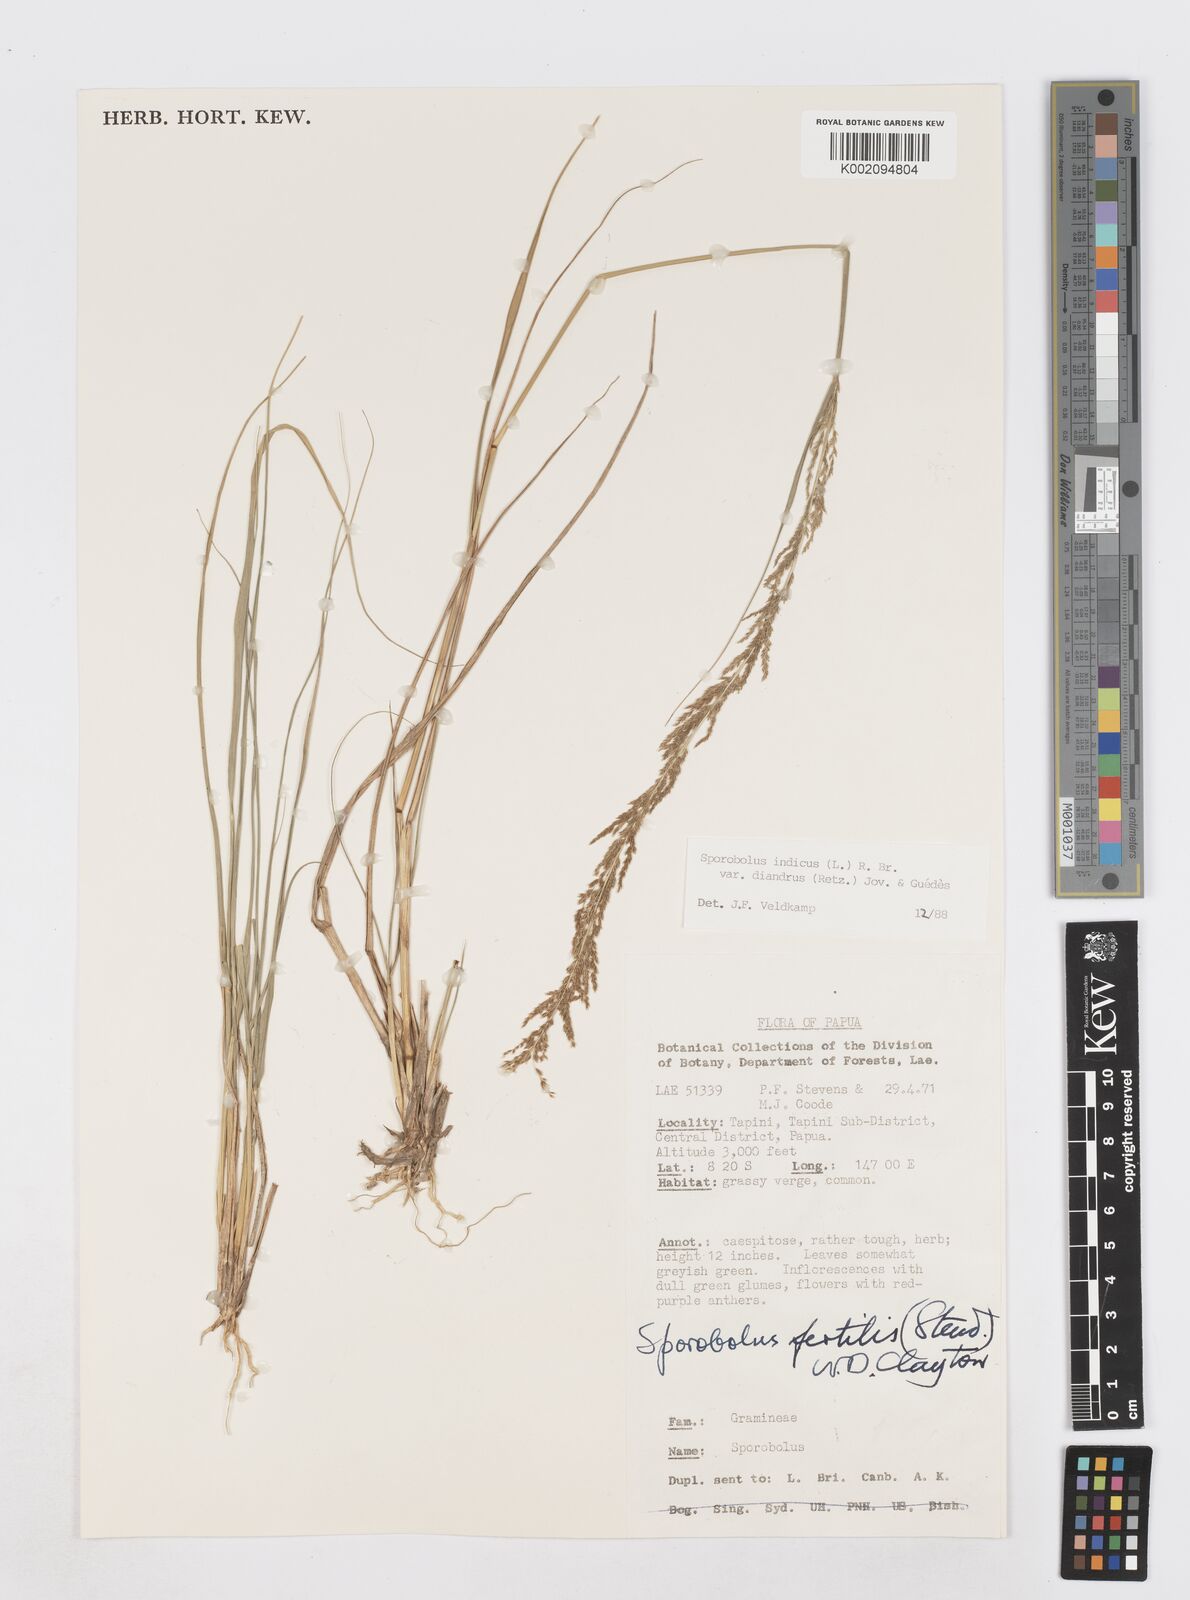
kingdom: Plantae
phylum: Tracheophyta
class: Liliopsida
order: Poales
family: Poaceae
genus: Sporobolus
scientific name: Sporobolus diandrus
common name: Tussock dropseed
